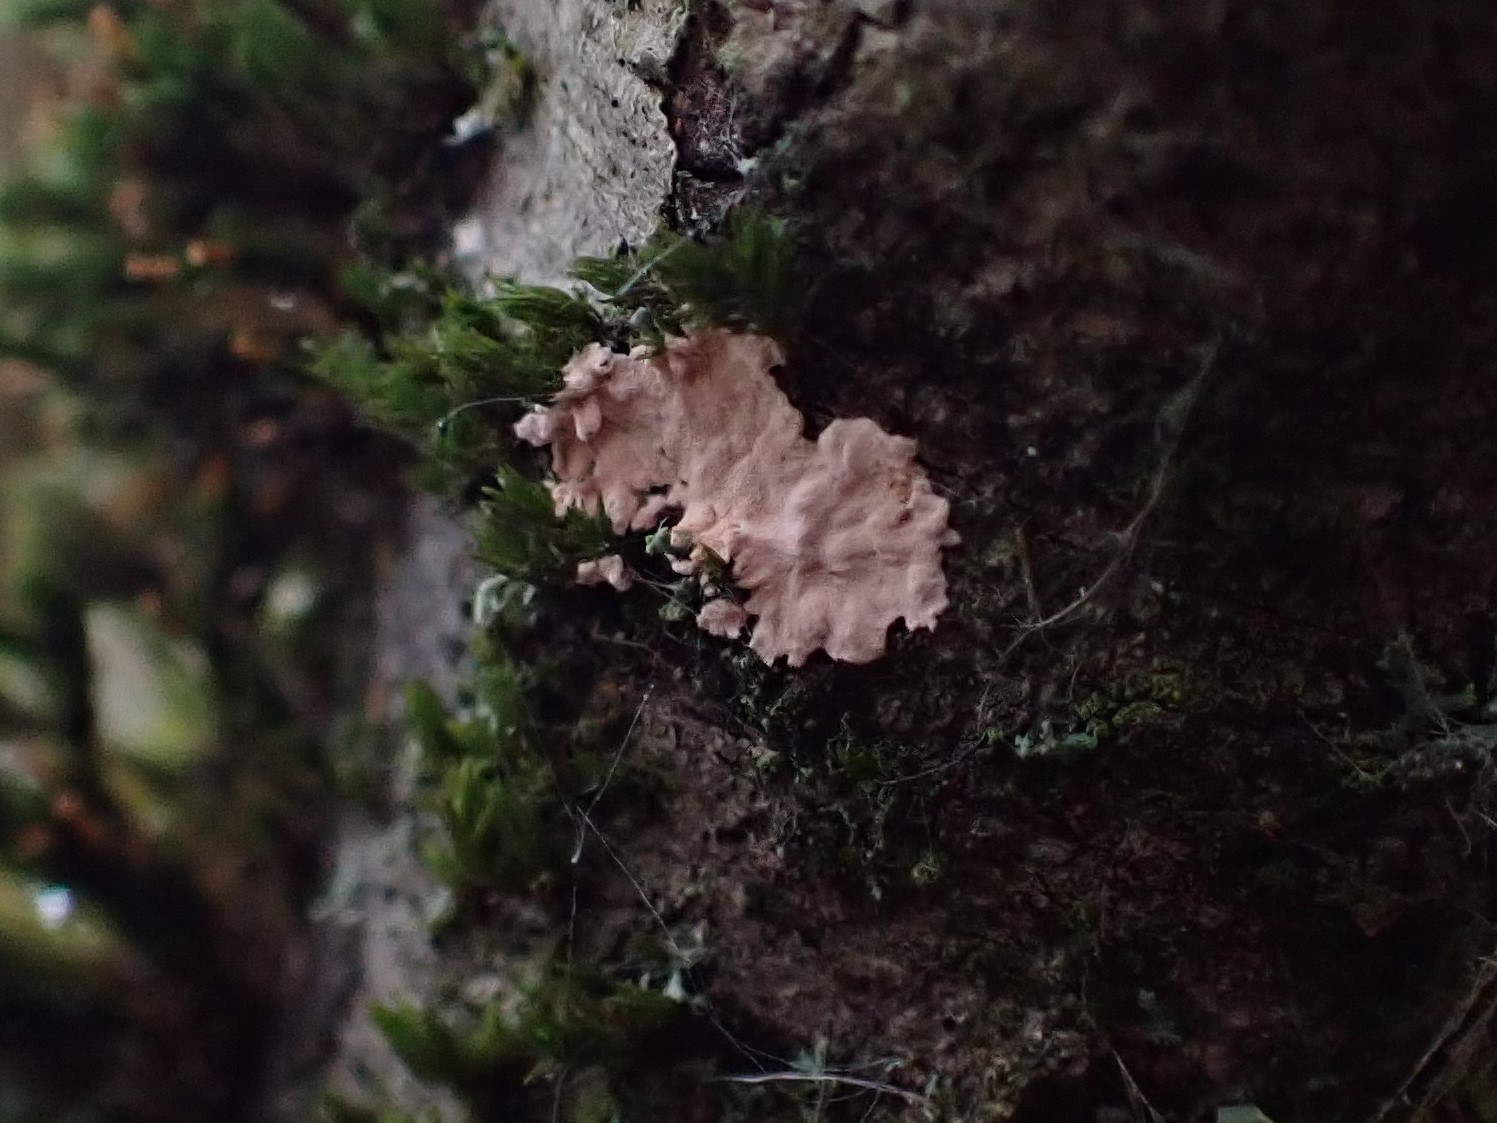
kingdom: Fungi
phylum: Basidiomycota
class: Agaricomycetes
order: Corticiales
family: Corticiaceae
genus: Corticium
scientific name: Corticium roseum
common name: rosa barkskind
